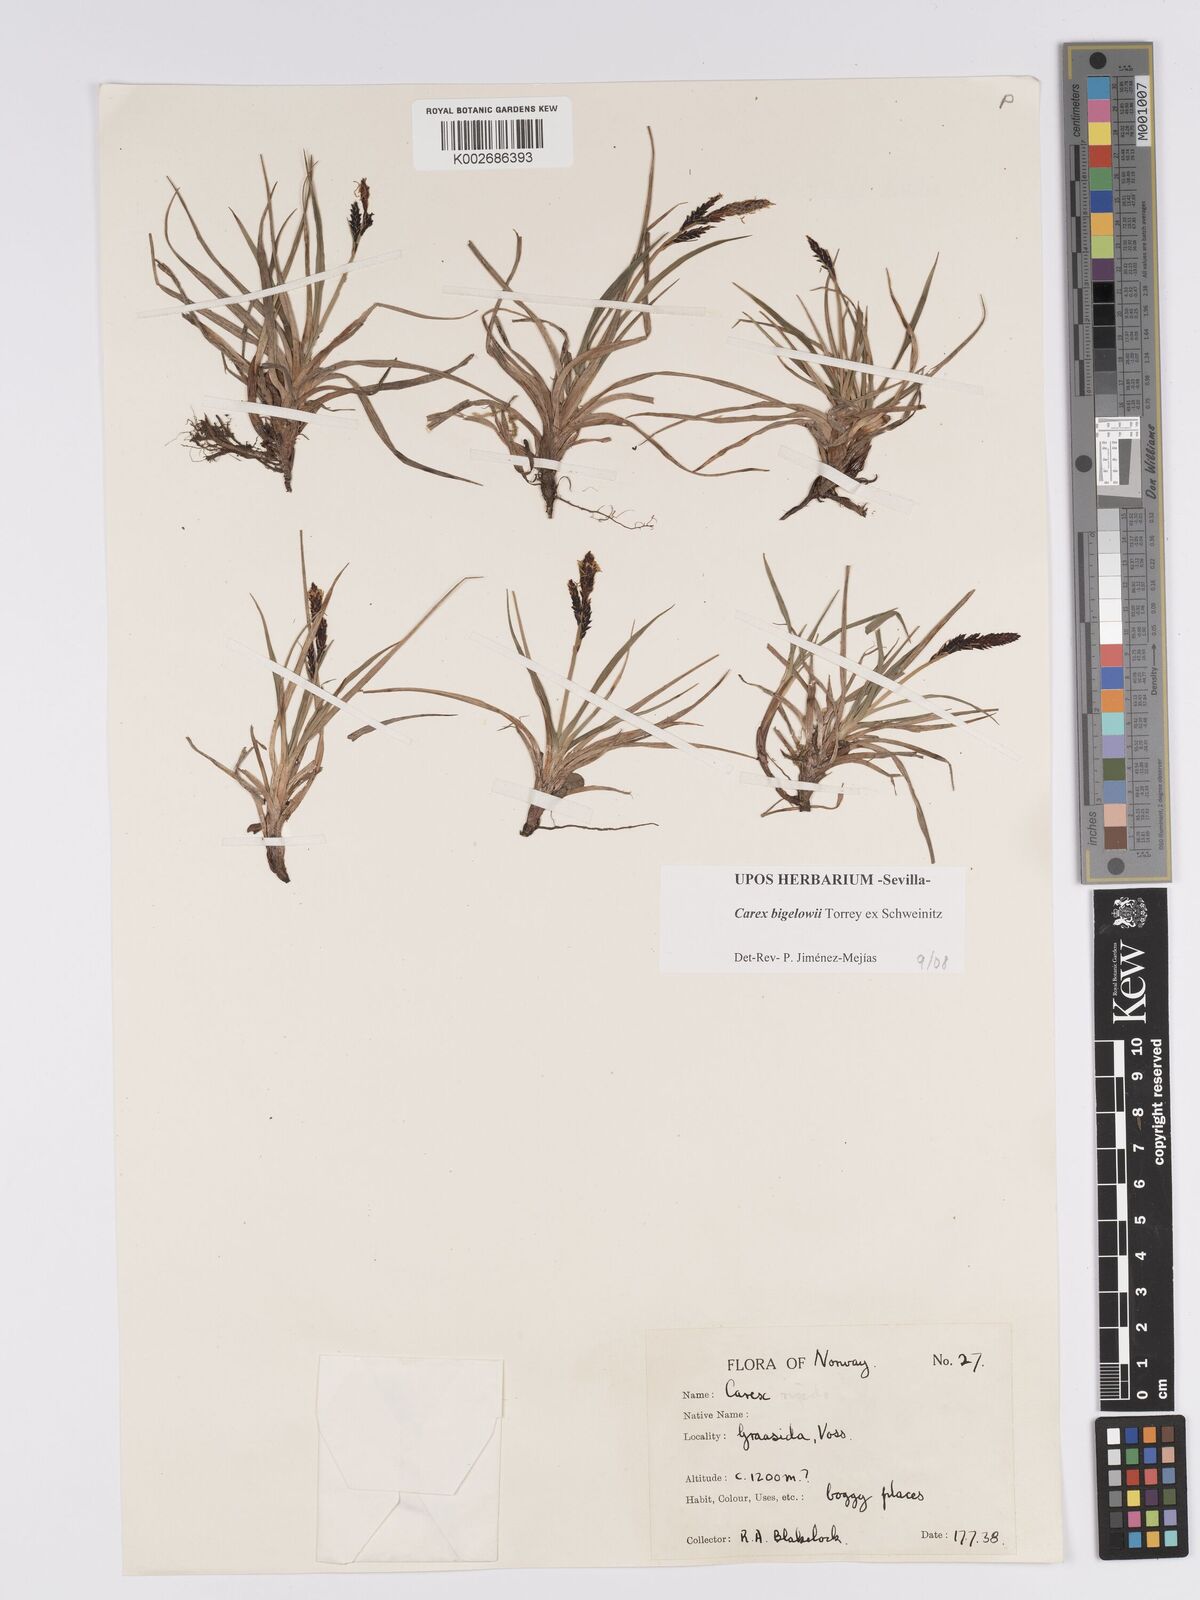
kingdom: Plantae
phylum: Tracheophyta
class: Liliopsida
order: Poales
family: Cyperaceae
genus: Carex
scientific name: Carex bigelowii
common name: Stiff sedge
